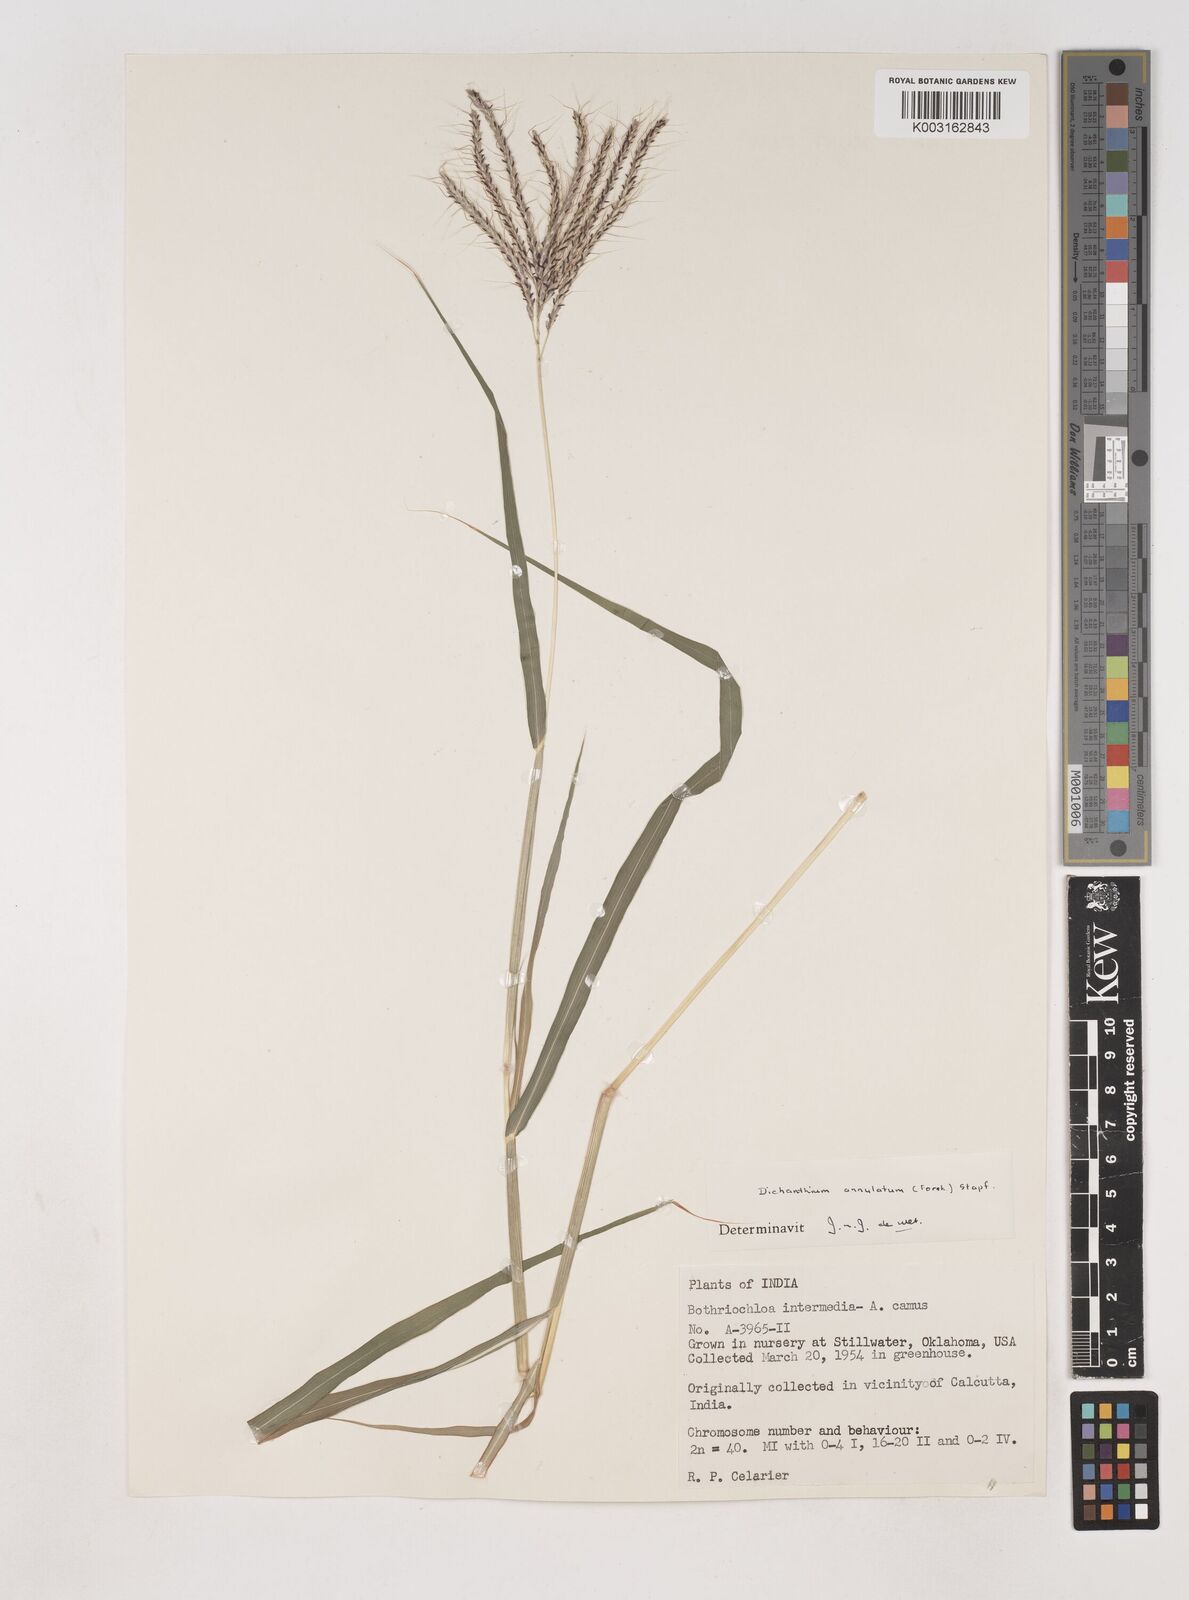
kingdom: Plantae
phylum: Tracheophyta
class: Liliopsida
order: Poales
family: Poaceae
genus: Dichanthium
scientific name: Dichanthium annulatum
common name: Kleberg's bluestem
